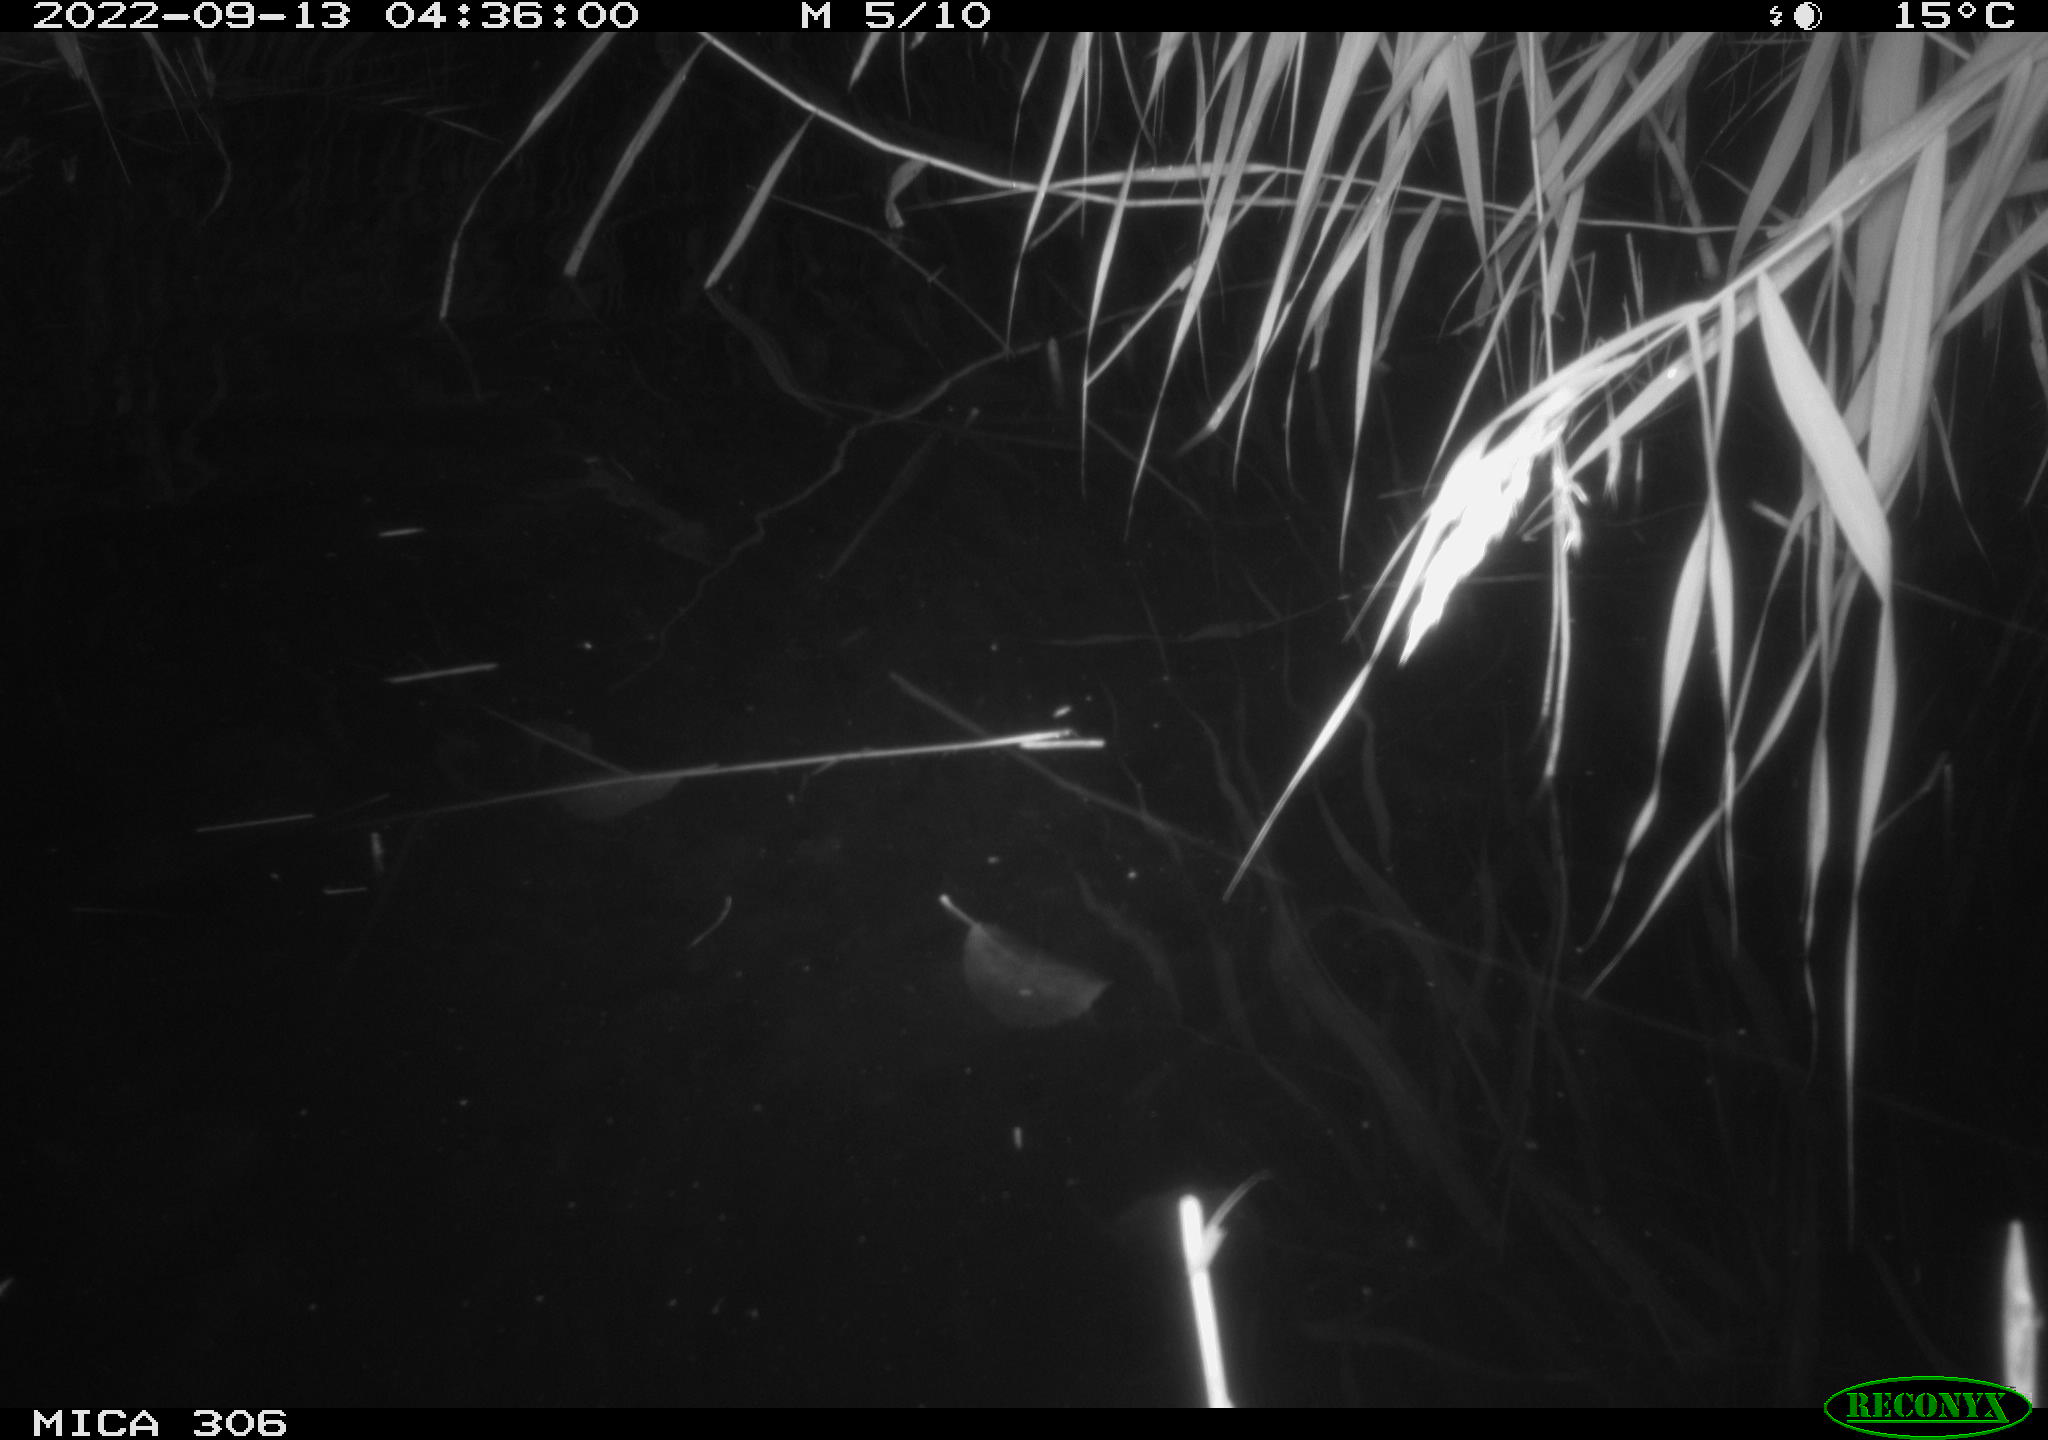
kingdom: Animalia
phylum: Chordata
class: Mammalia
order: Rodentia
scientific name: Rodentia
